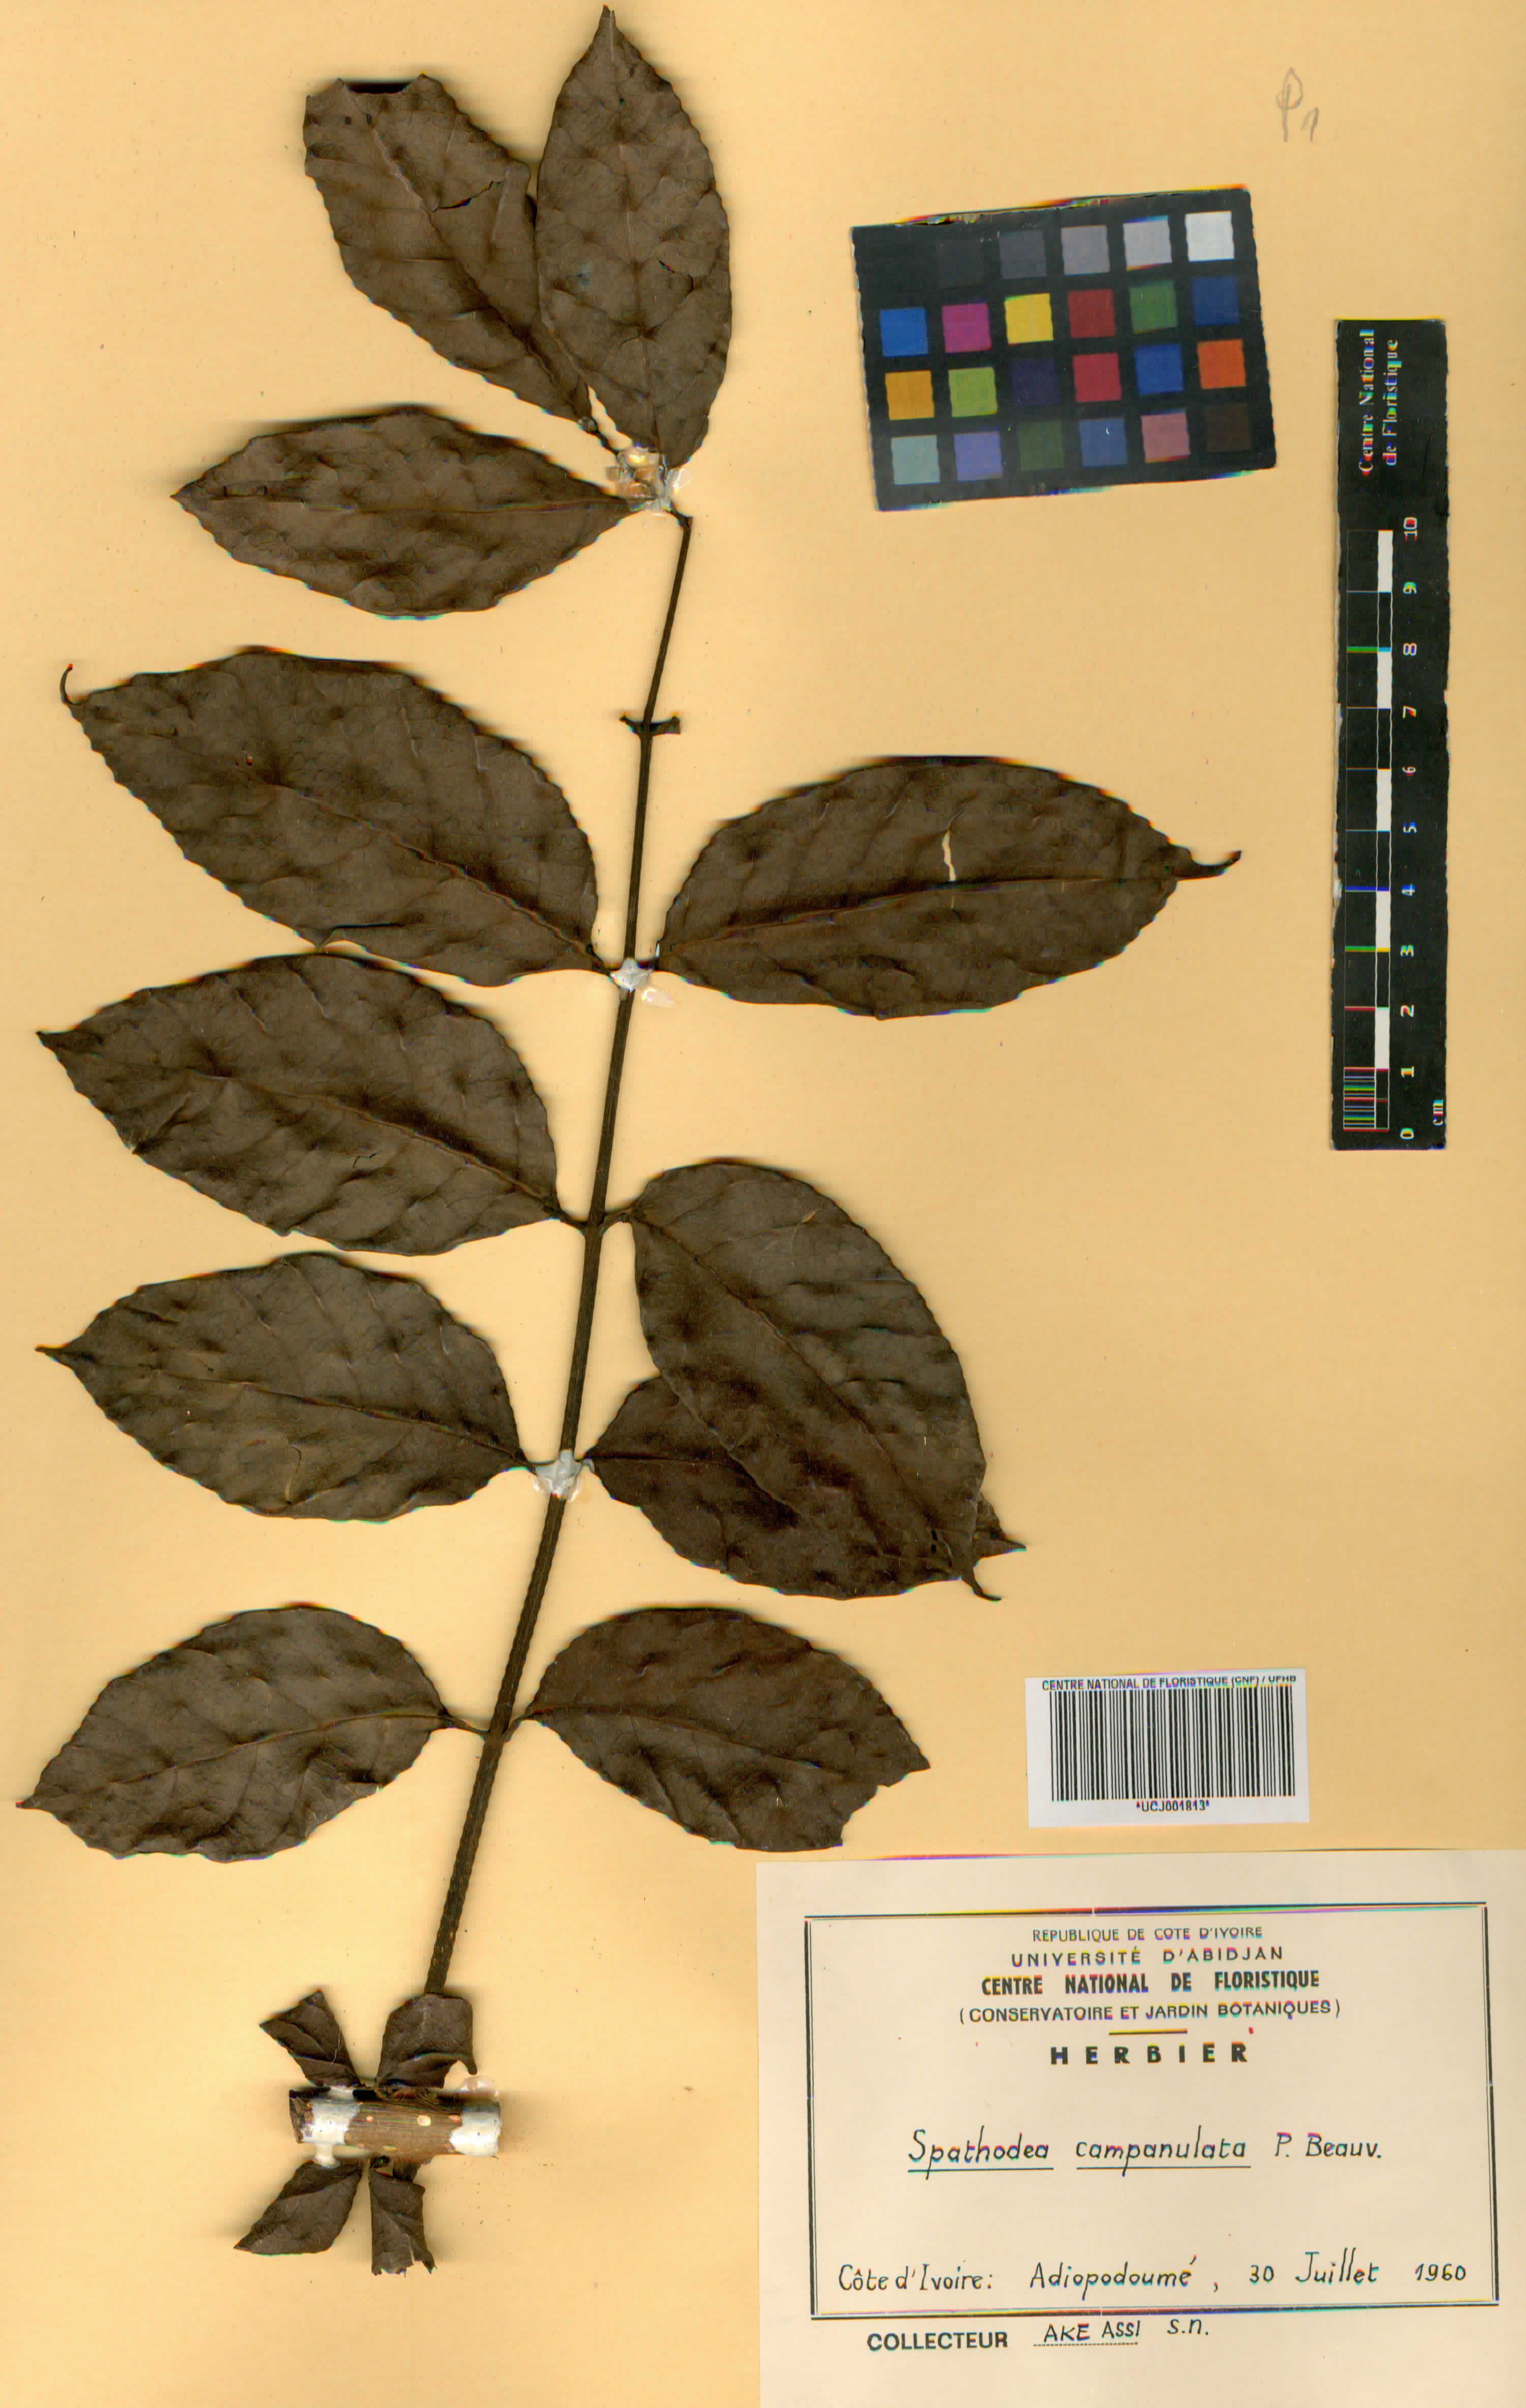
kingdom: Plantae
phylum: Tracheophyta
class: Magnoliopsida
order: Lamiales
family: Bignoniaceae
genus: Spathodea
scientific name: Spathodea campanulata
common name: African tuliptree
